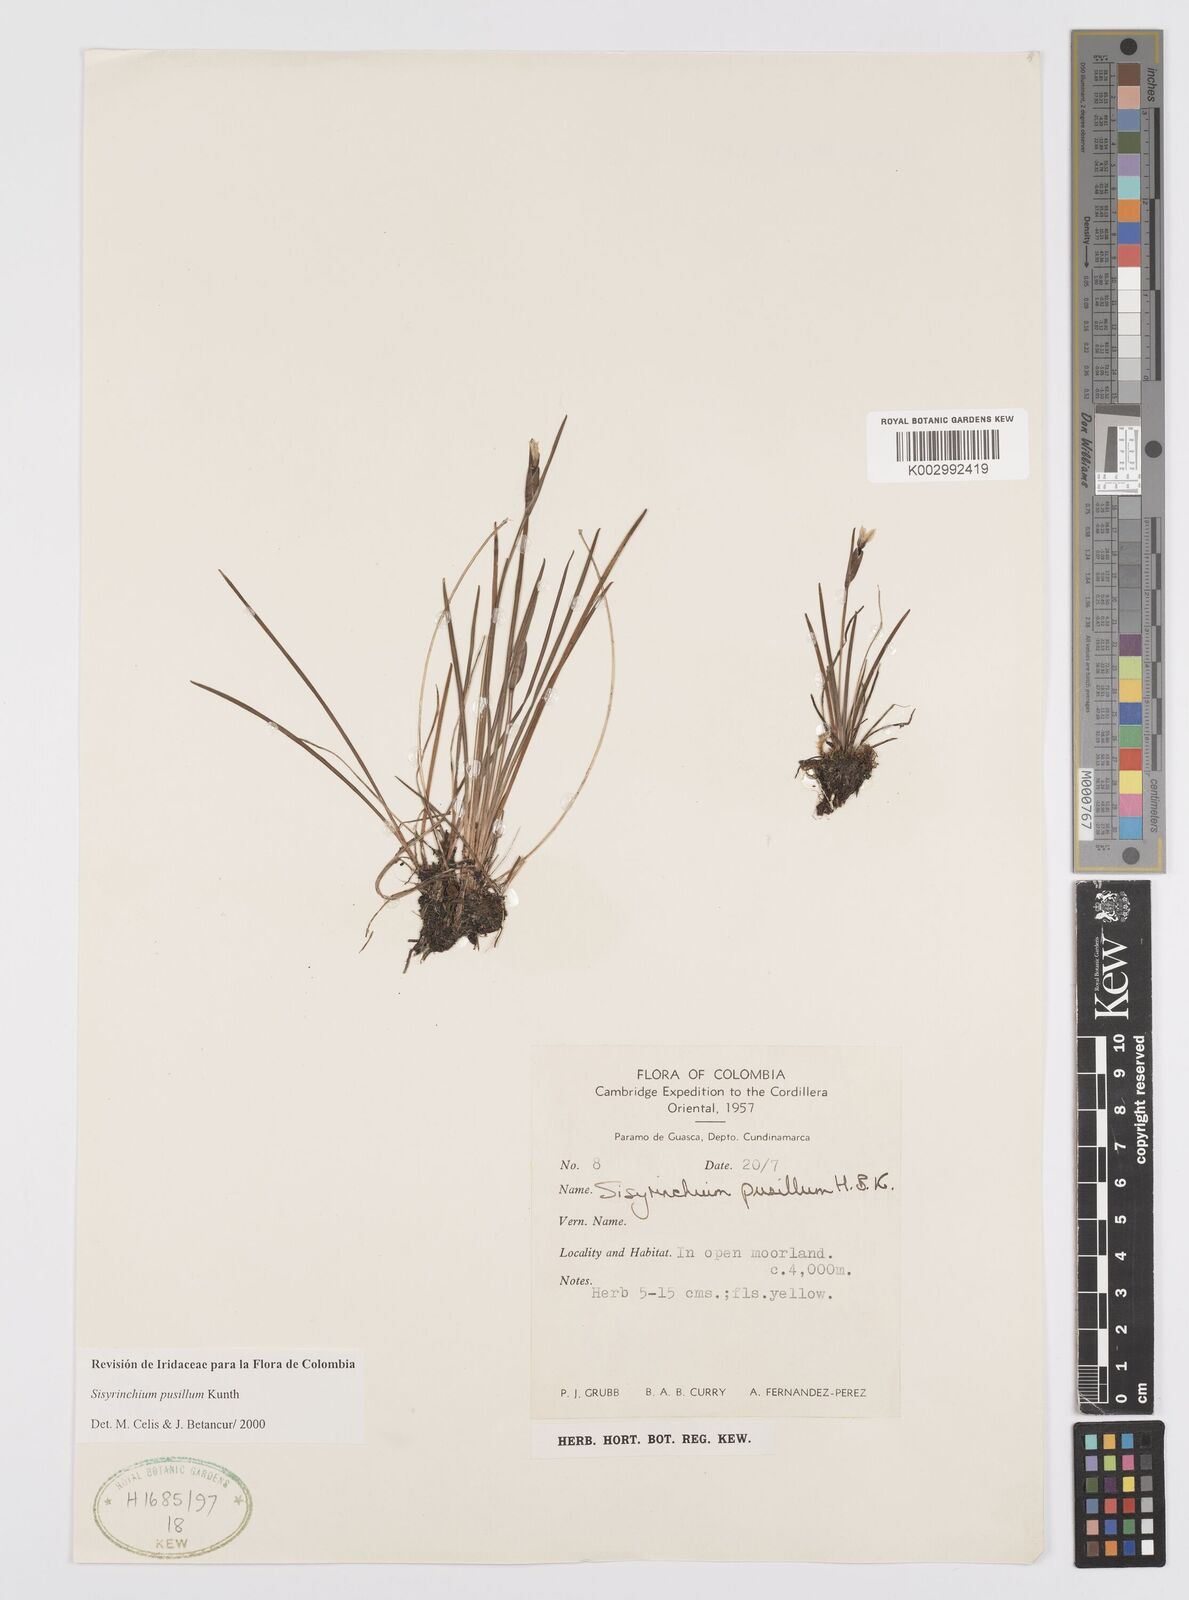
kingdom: Plantae
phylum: Tracheophyta
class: Liliopsida
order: Asparagales
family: Iridaceae
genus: Sisyrinchium
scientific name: Sisyrinchium pusillum
